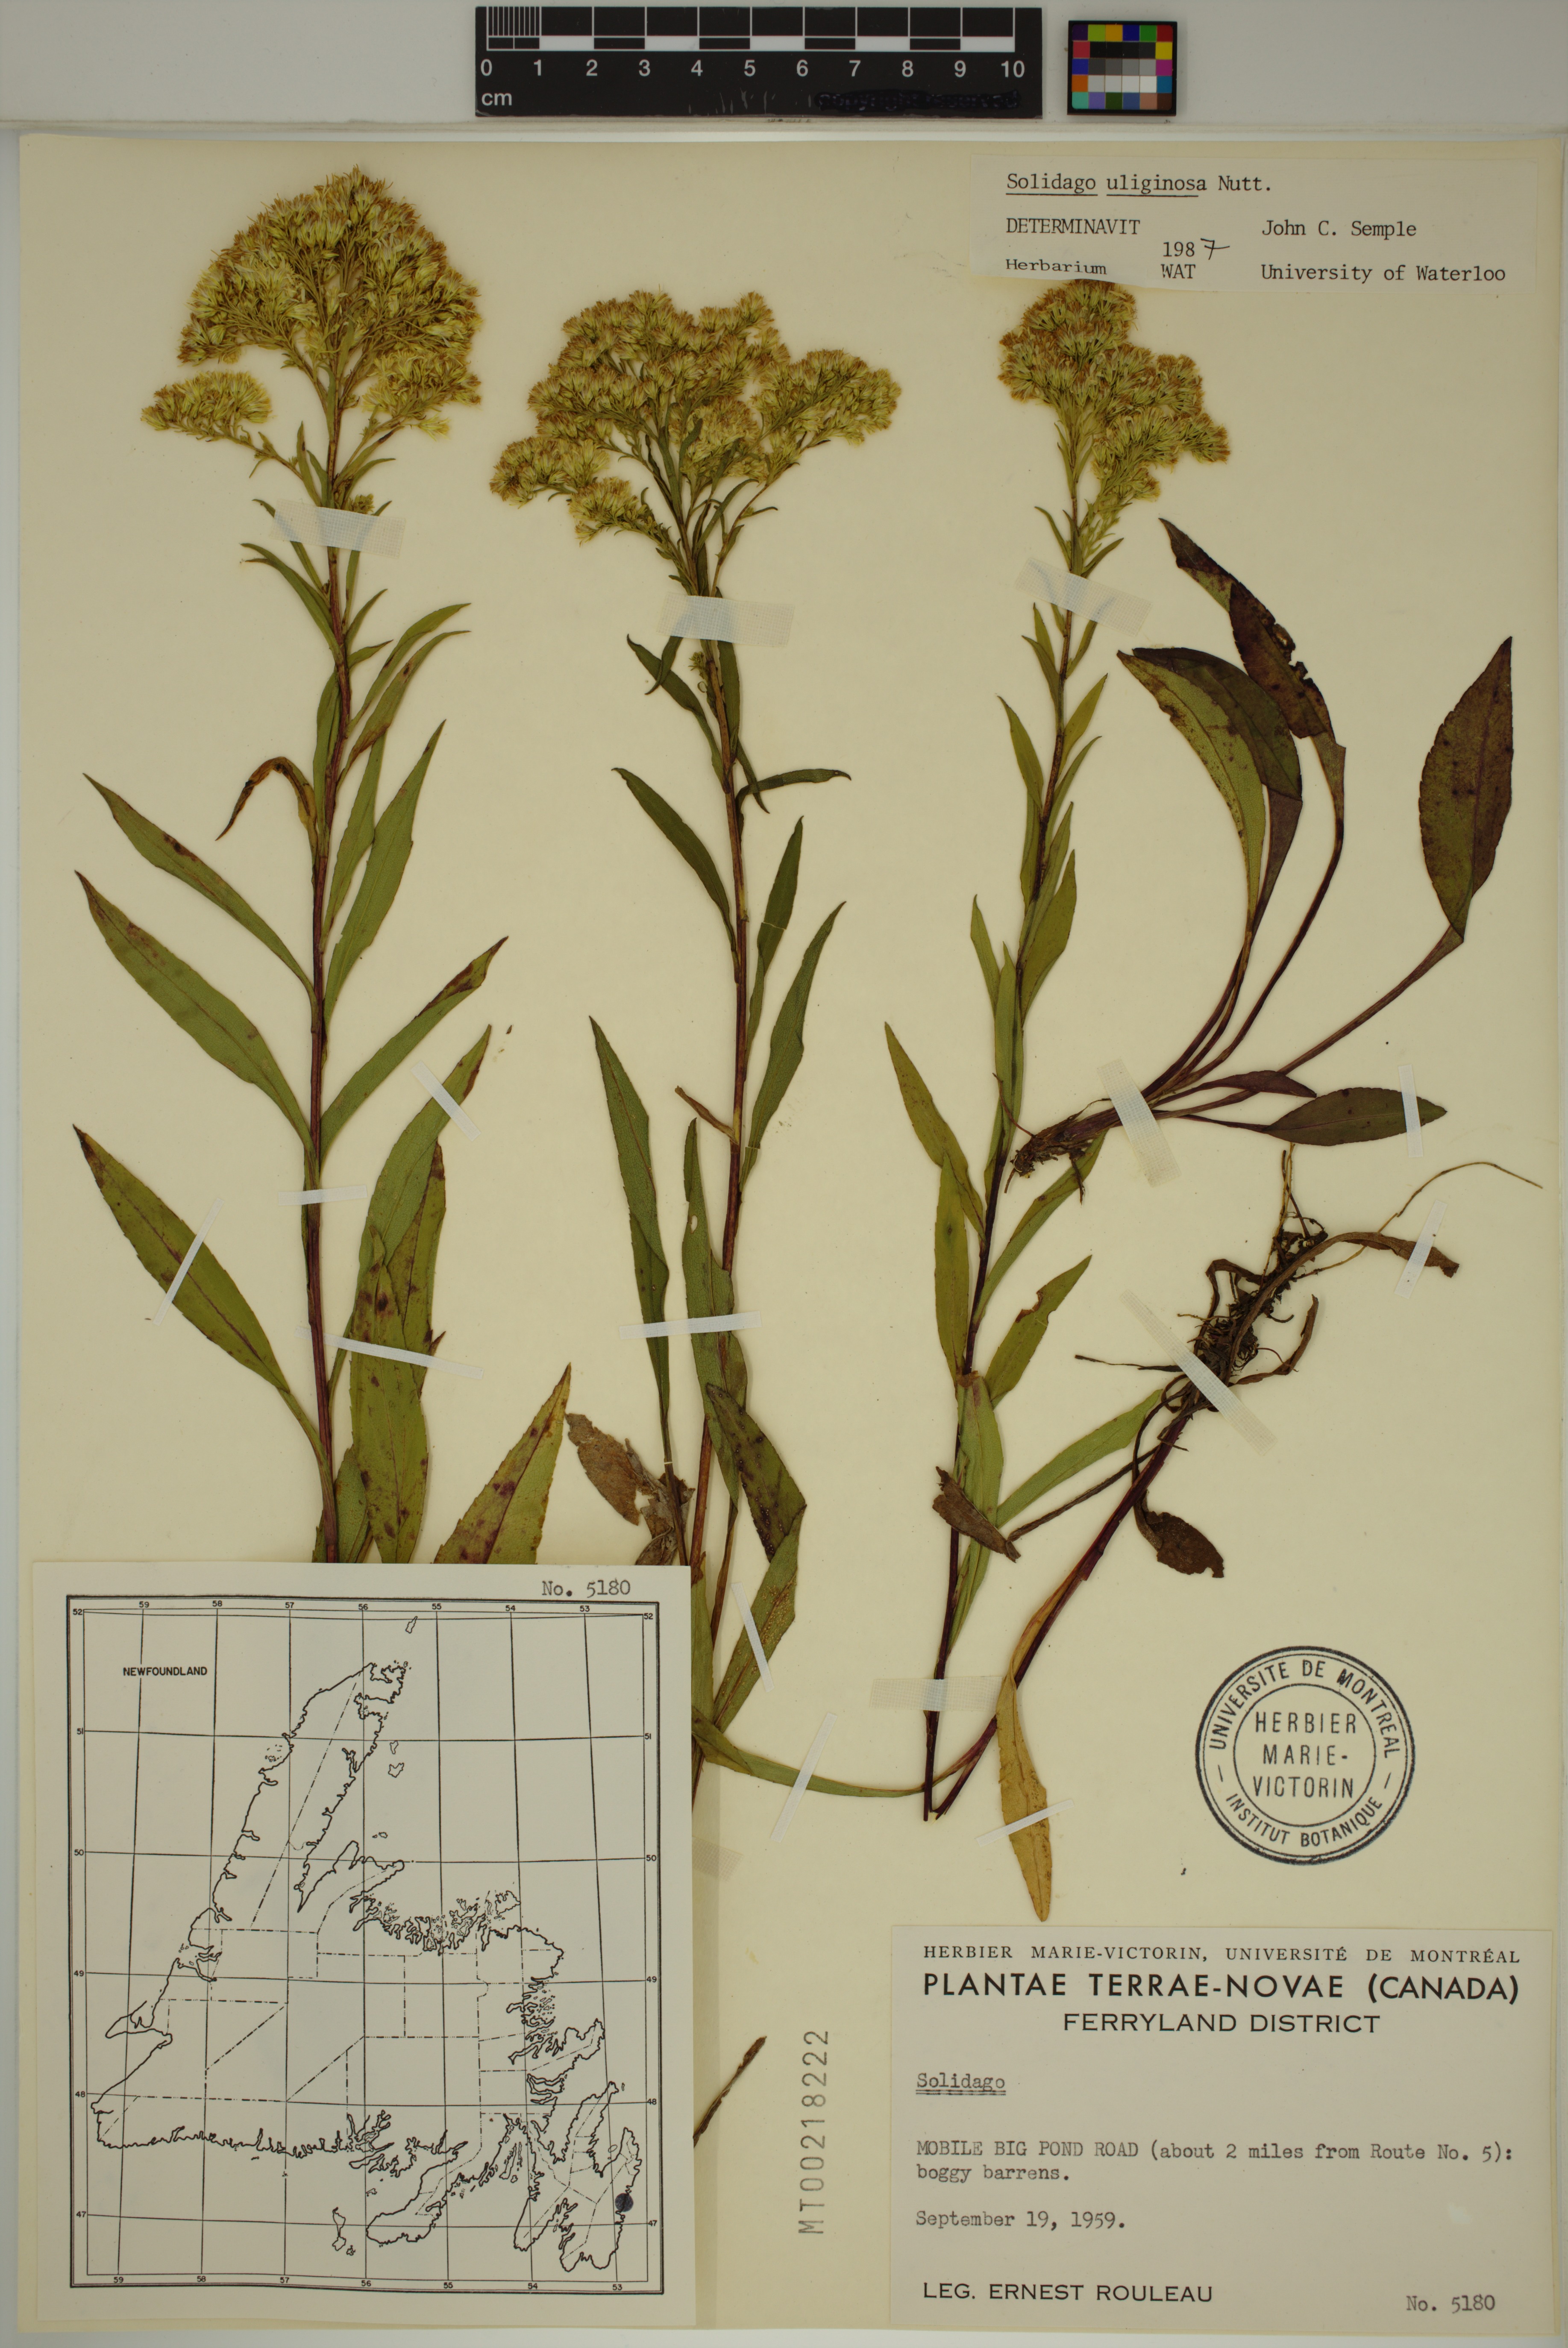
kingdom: Plantae
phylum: Tracheophyta
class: Magnoliopsida
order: Asterales
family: Asteraceae
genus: Solidago
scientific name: Solidago uliginosa
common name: Bog goldenrod
